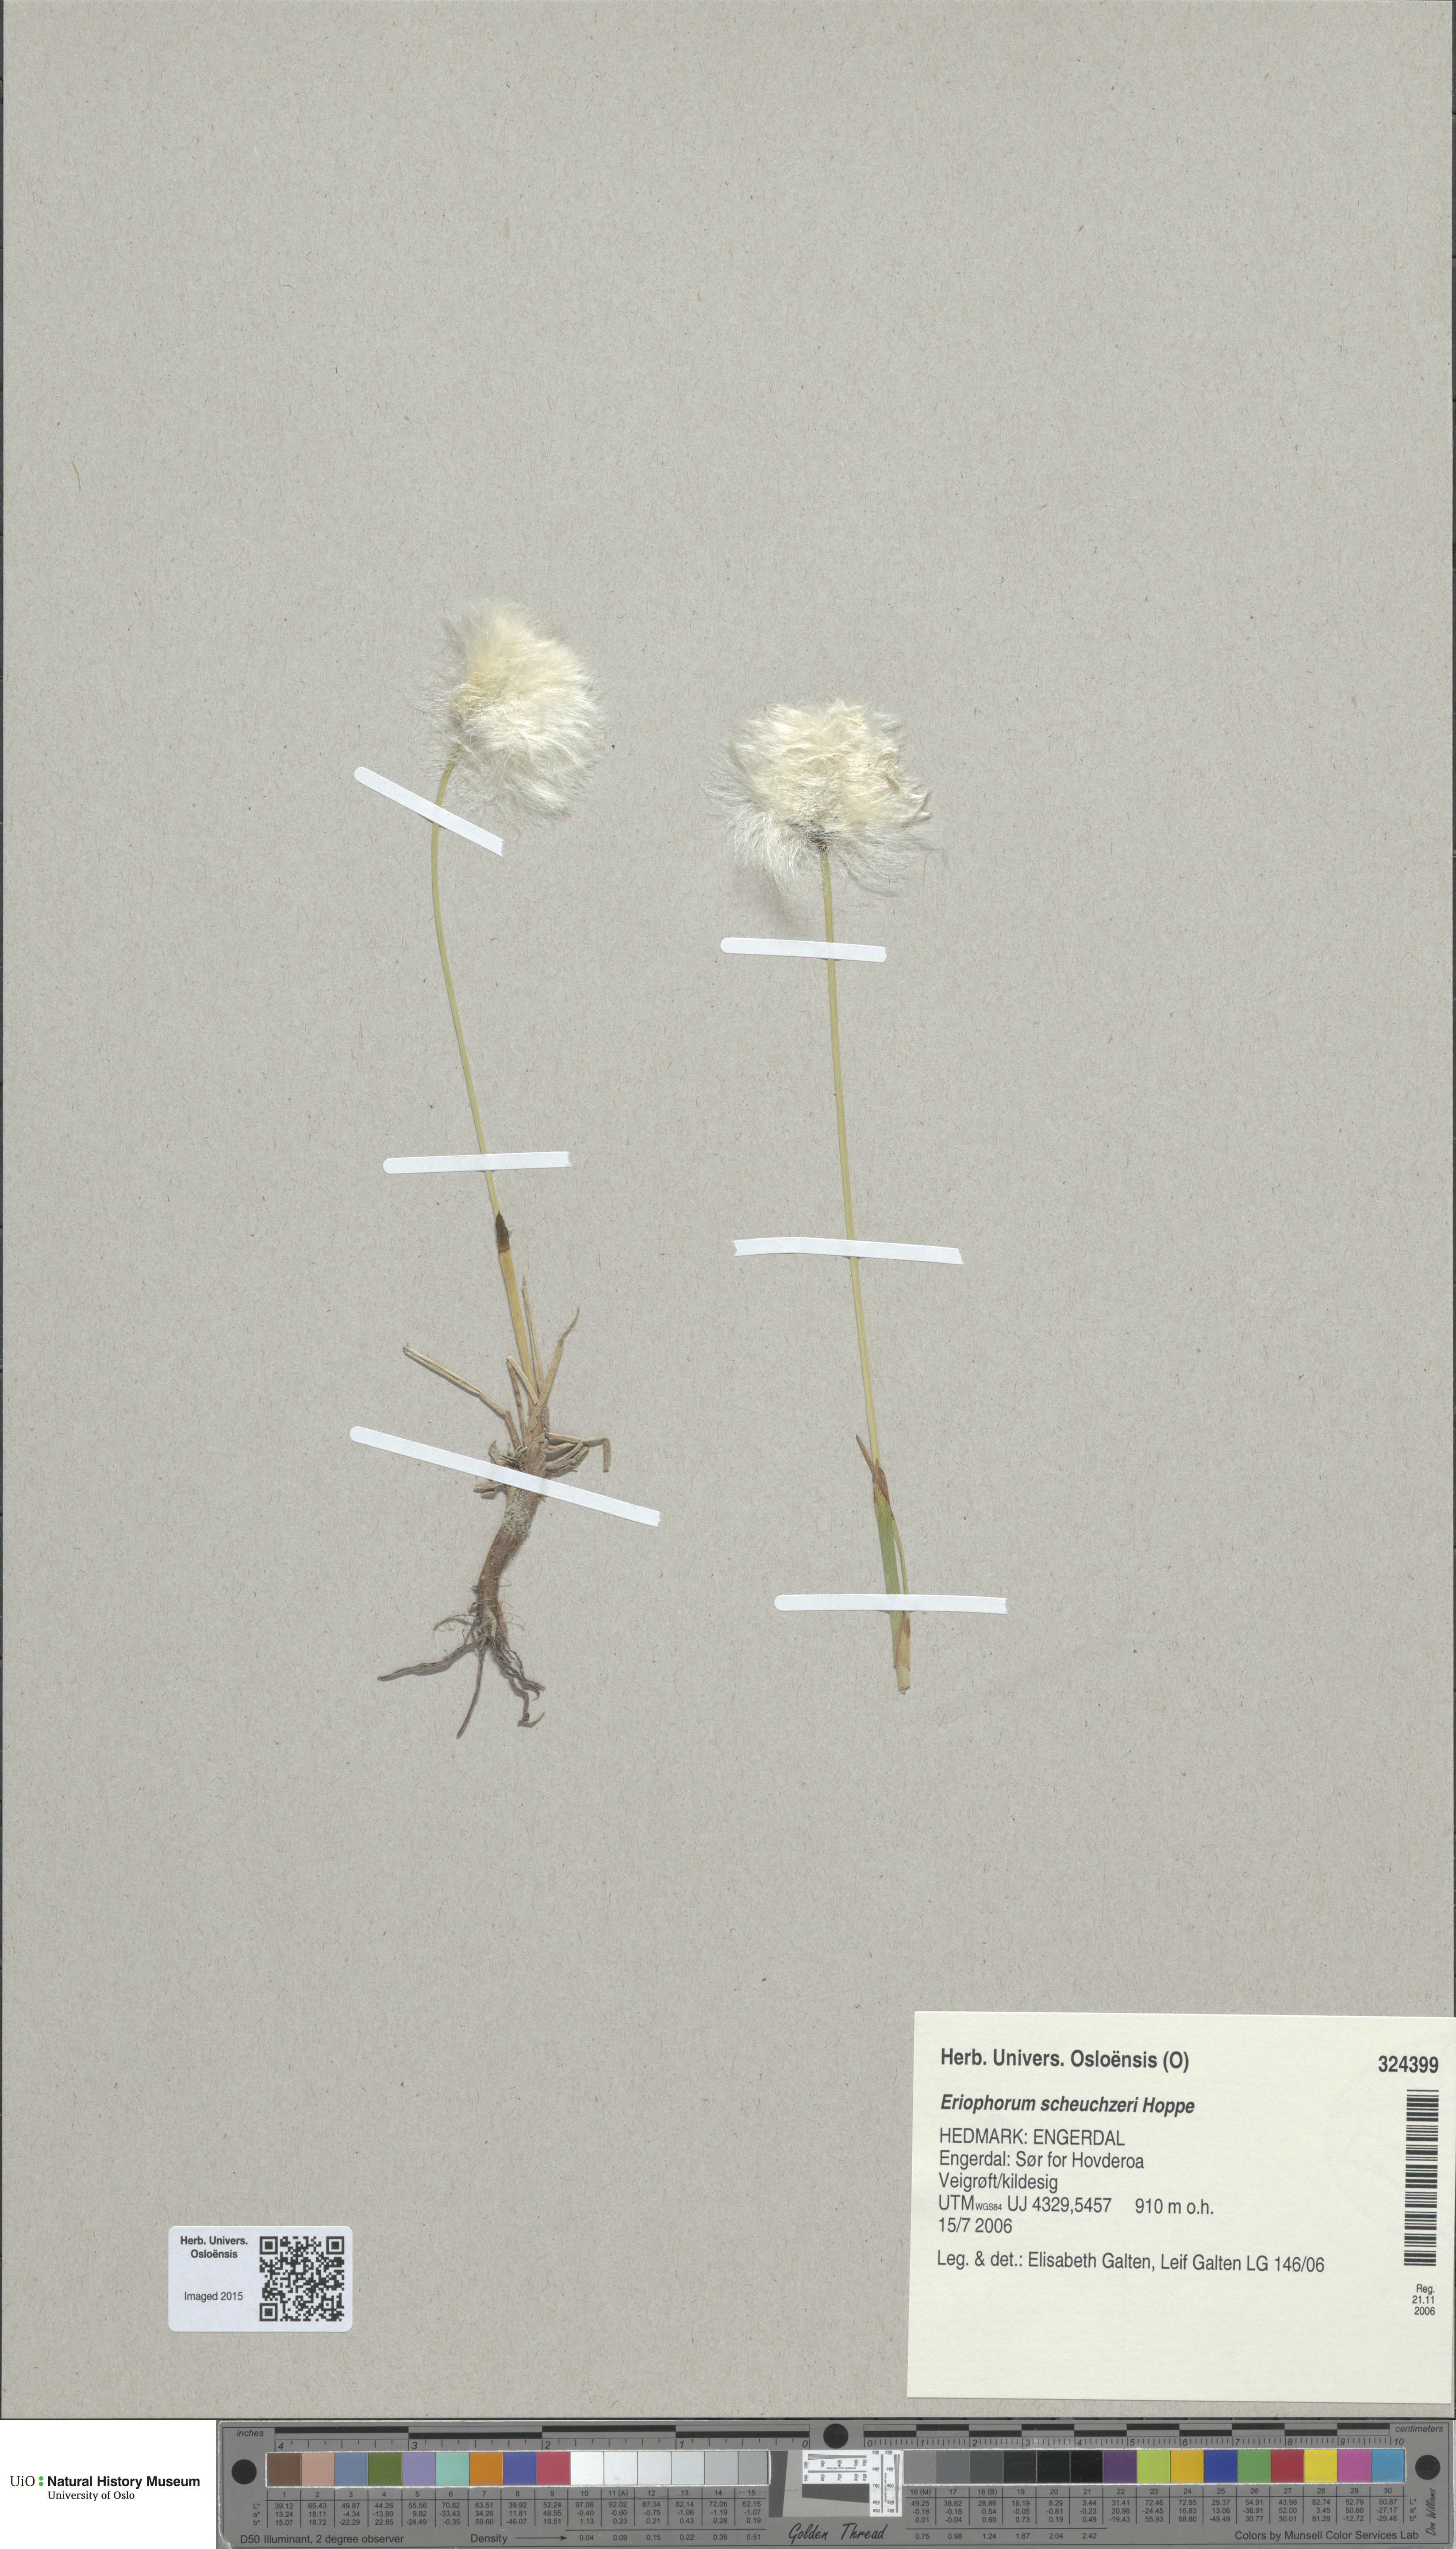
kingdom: Plantae
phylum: Tracheophyta
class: Liliopsida
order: Poales
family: Cyperaceae
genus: Eriophorum
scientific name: Eriophorum scheuchzeri
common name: Scheuchzer's cottongrass
